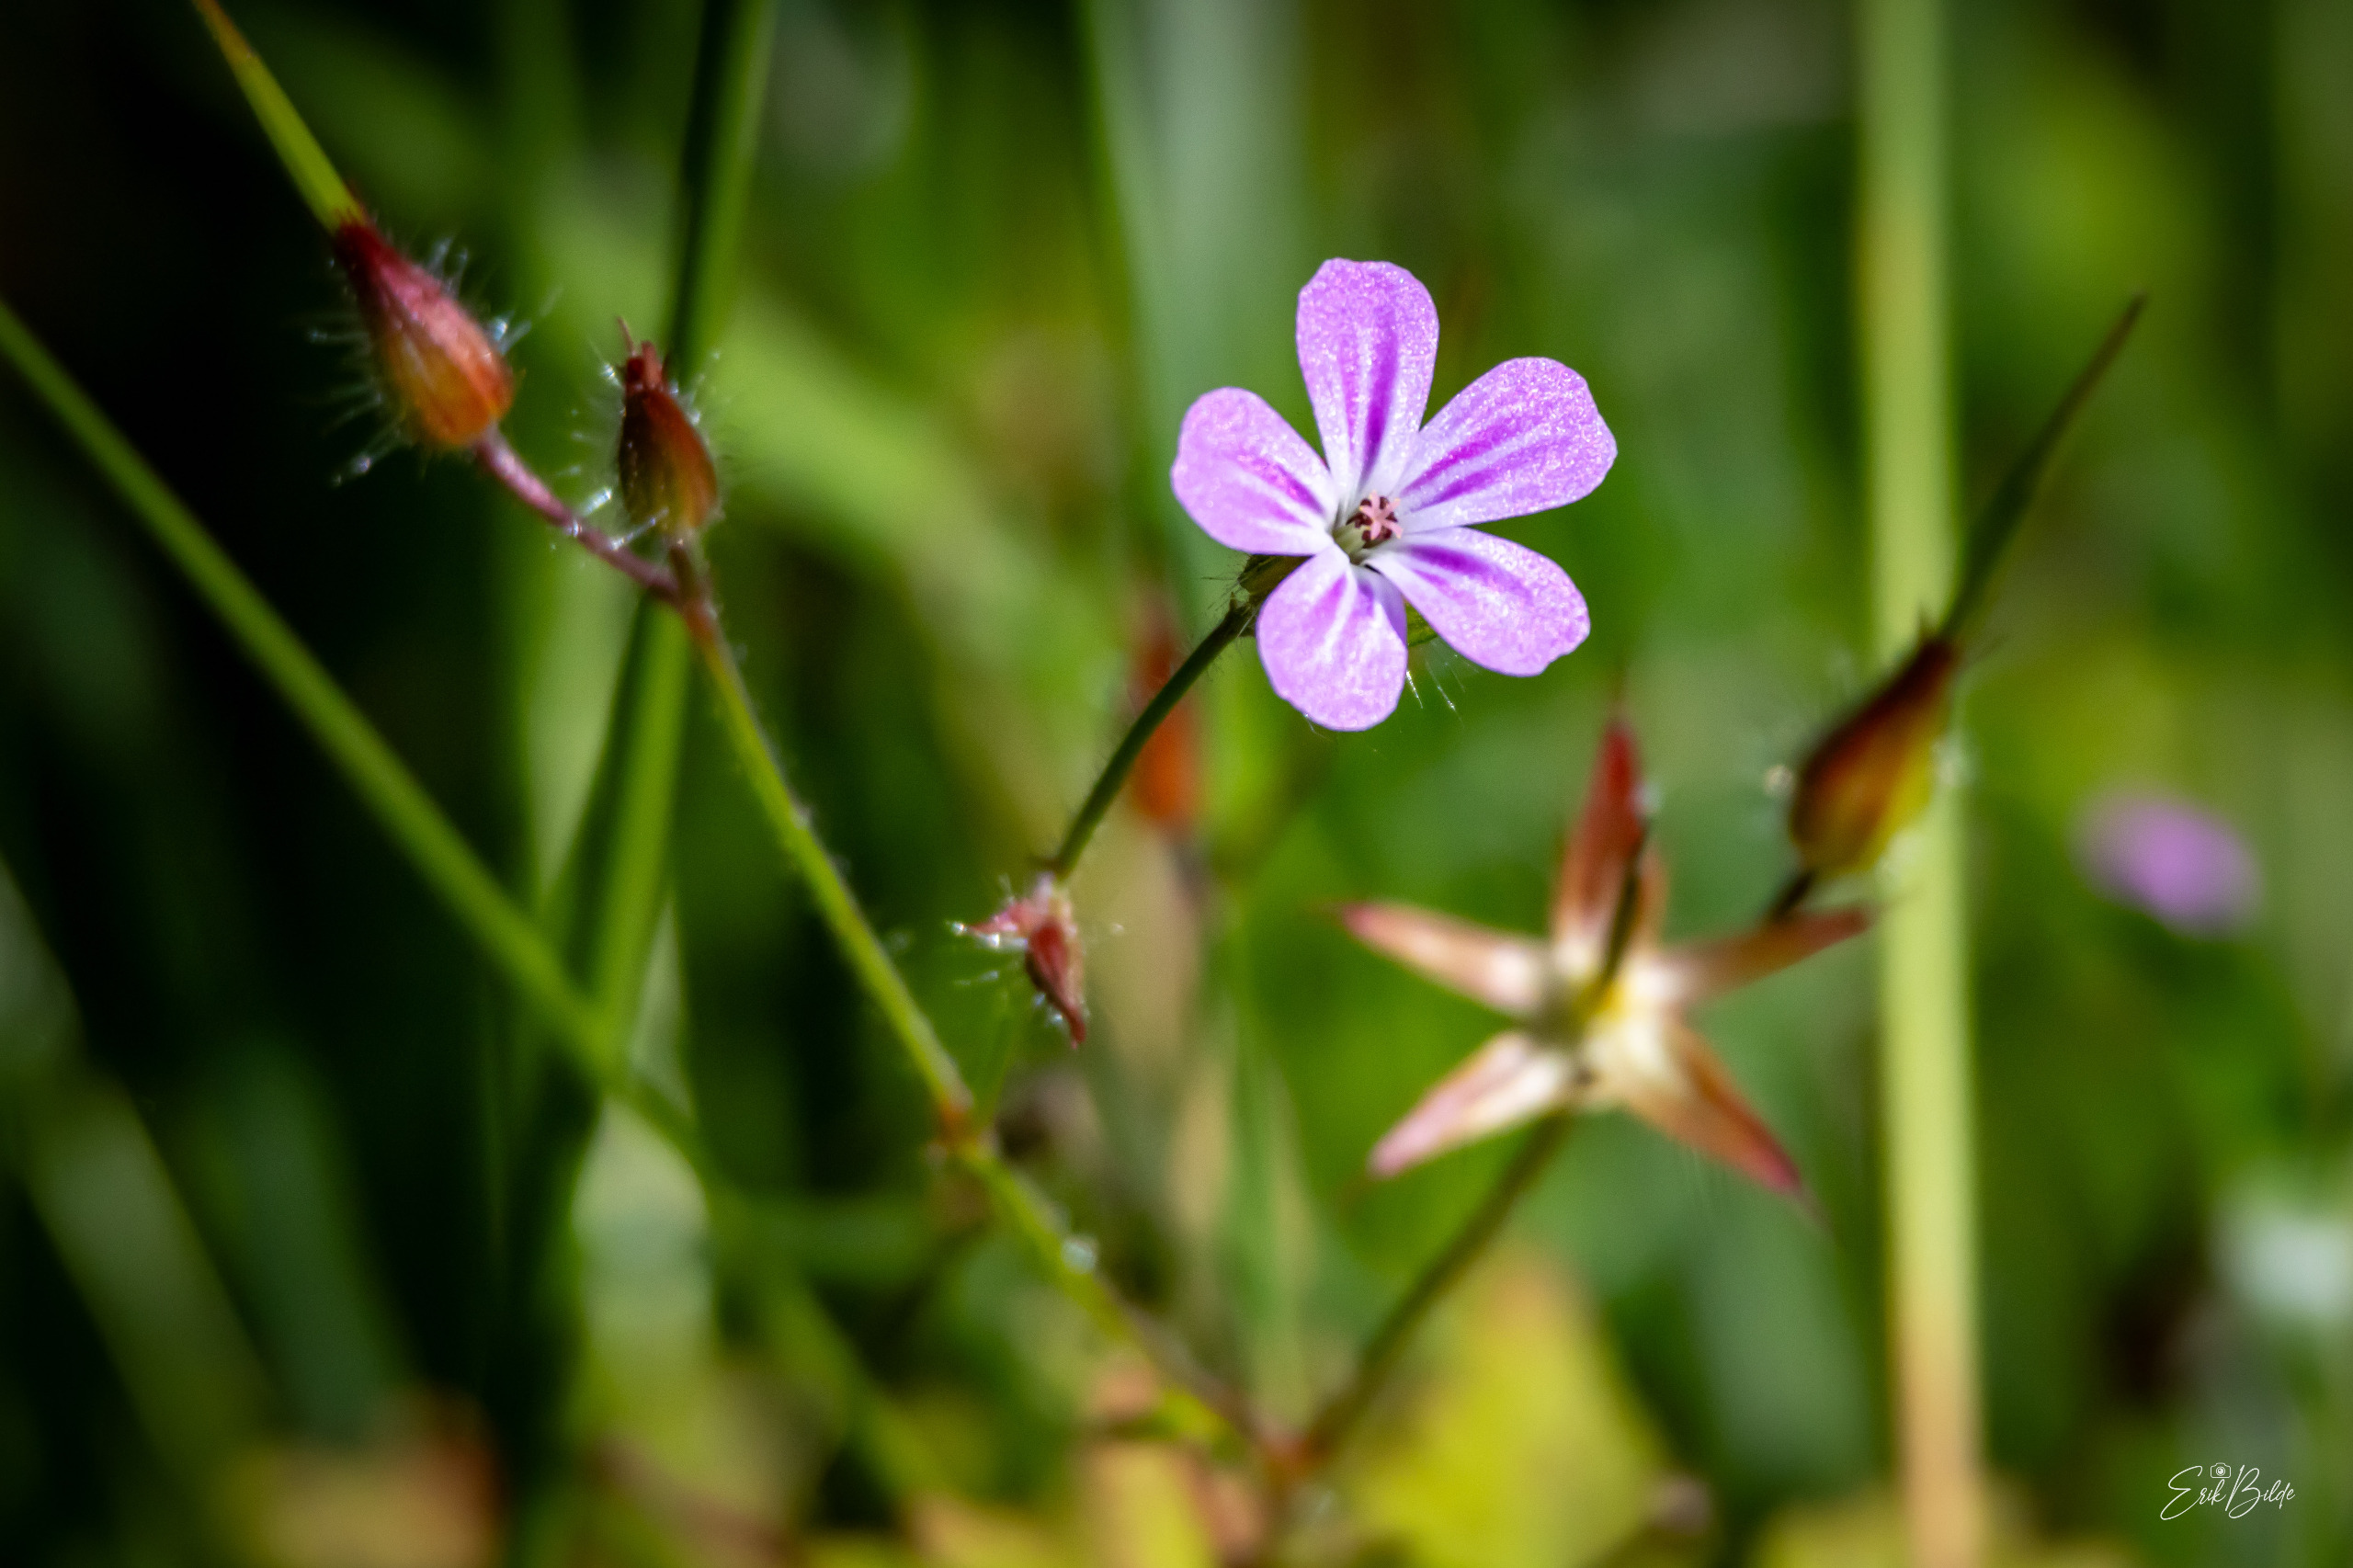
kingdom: Plantae
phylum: Tracheophyta
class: Magnoliopsida
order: Geraniales
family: Geraniaceae
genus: Geranium
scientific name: Geranium robertianum
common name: Stinkende storkenæb
